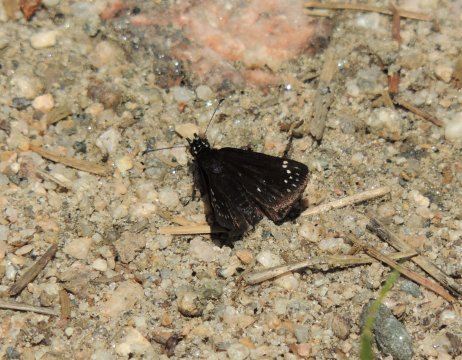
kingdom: Animalia
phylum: Arthropoda
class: Insecta
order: Lepidoptera
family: Hesperiidae
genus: Pholisora
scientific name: Pholisora catullus
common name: Common Sootywing
